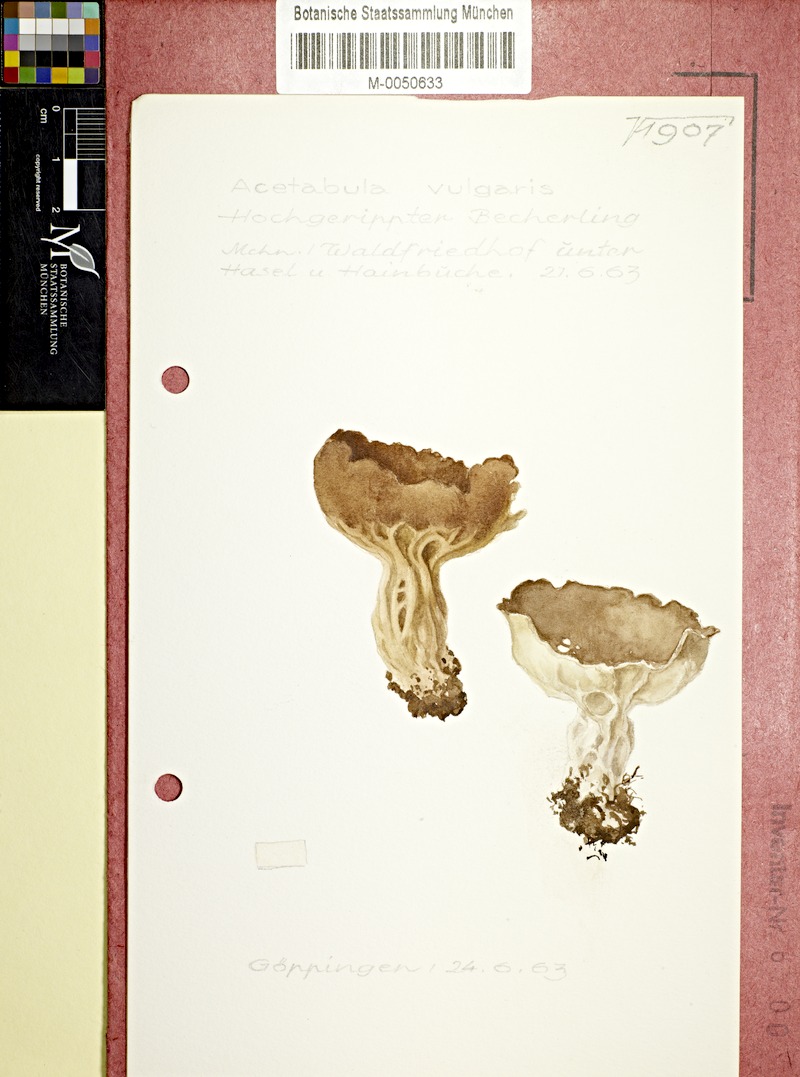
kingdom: Fungi
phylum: Ascomycota
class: Pezizomycetes
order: Pezizales
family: Helvellaceae
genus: Helvella
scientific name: Helvella acetabulum
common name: Vinegar cup
